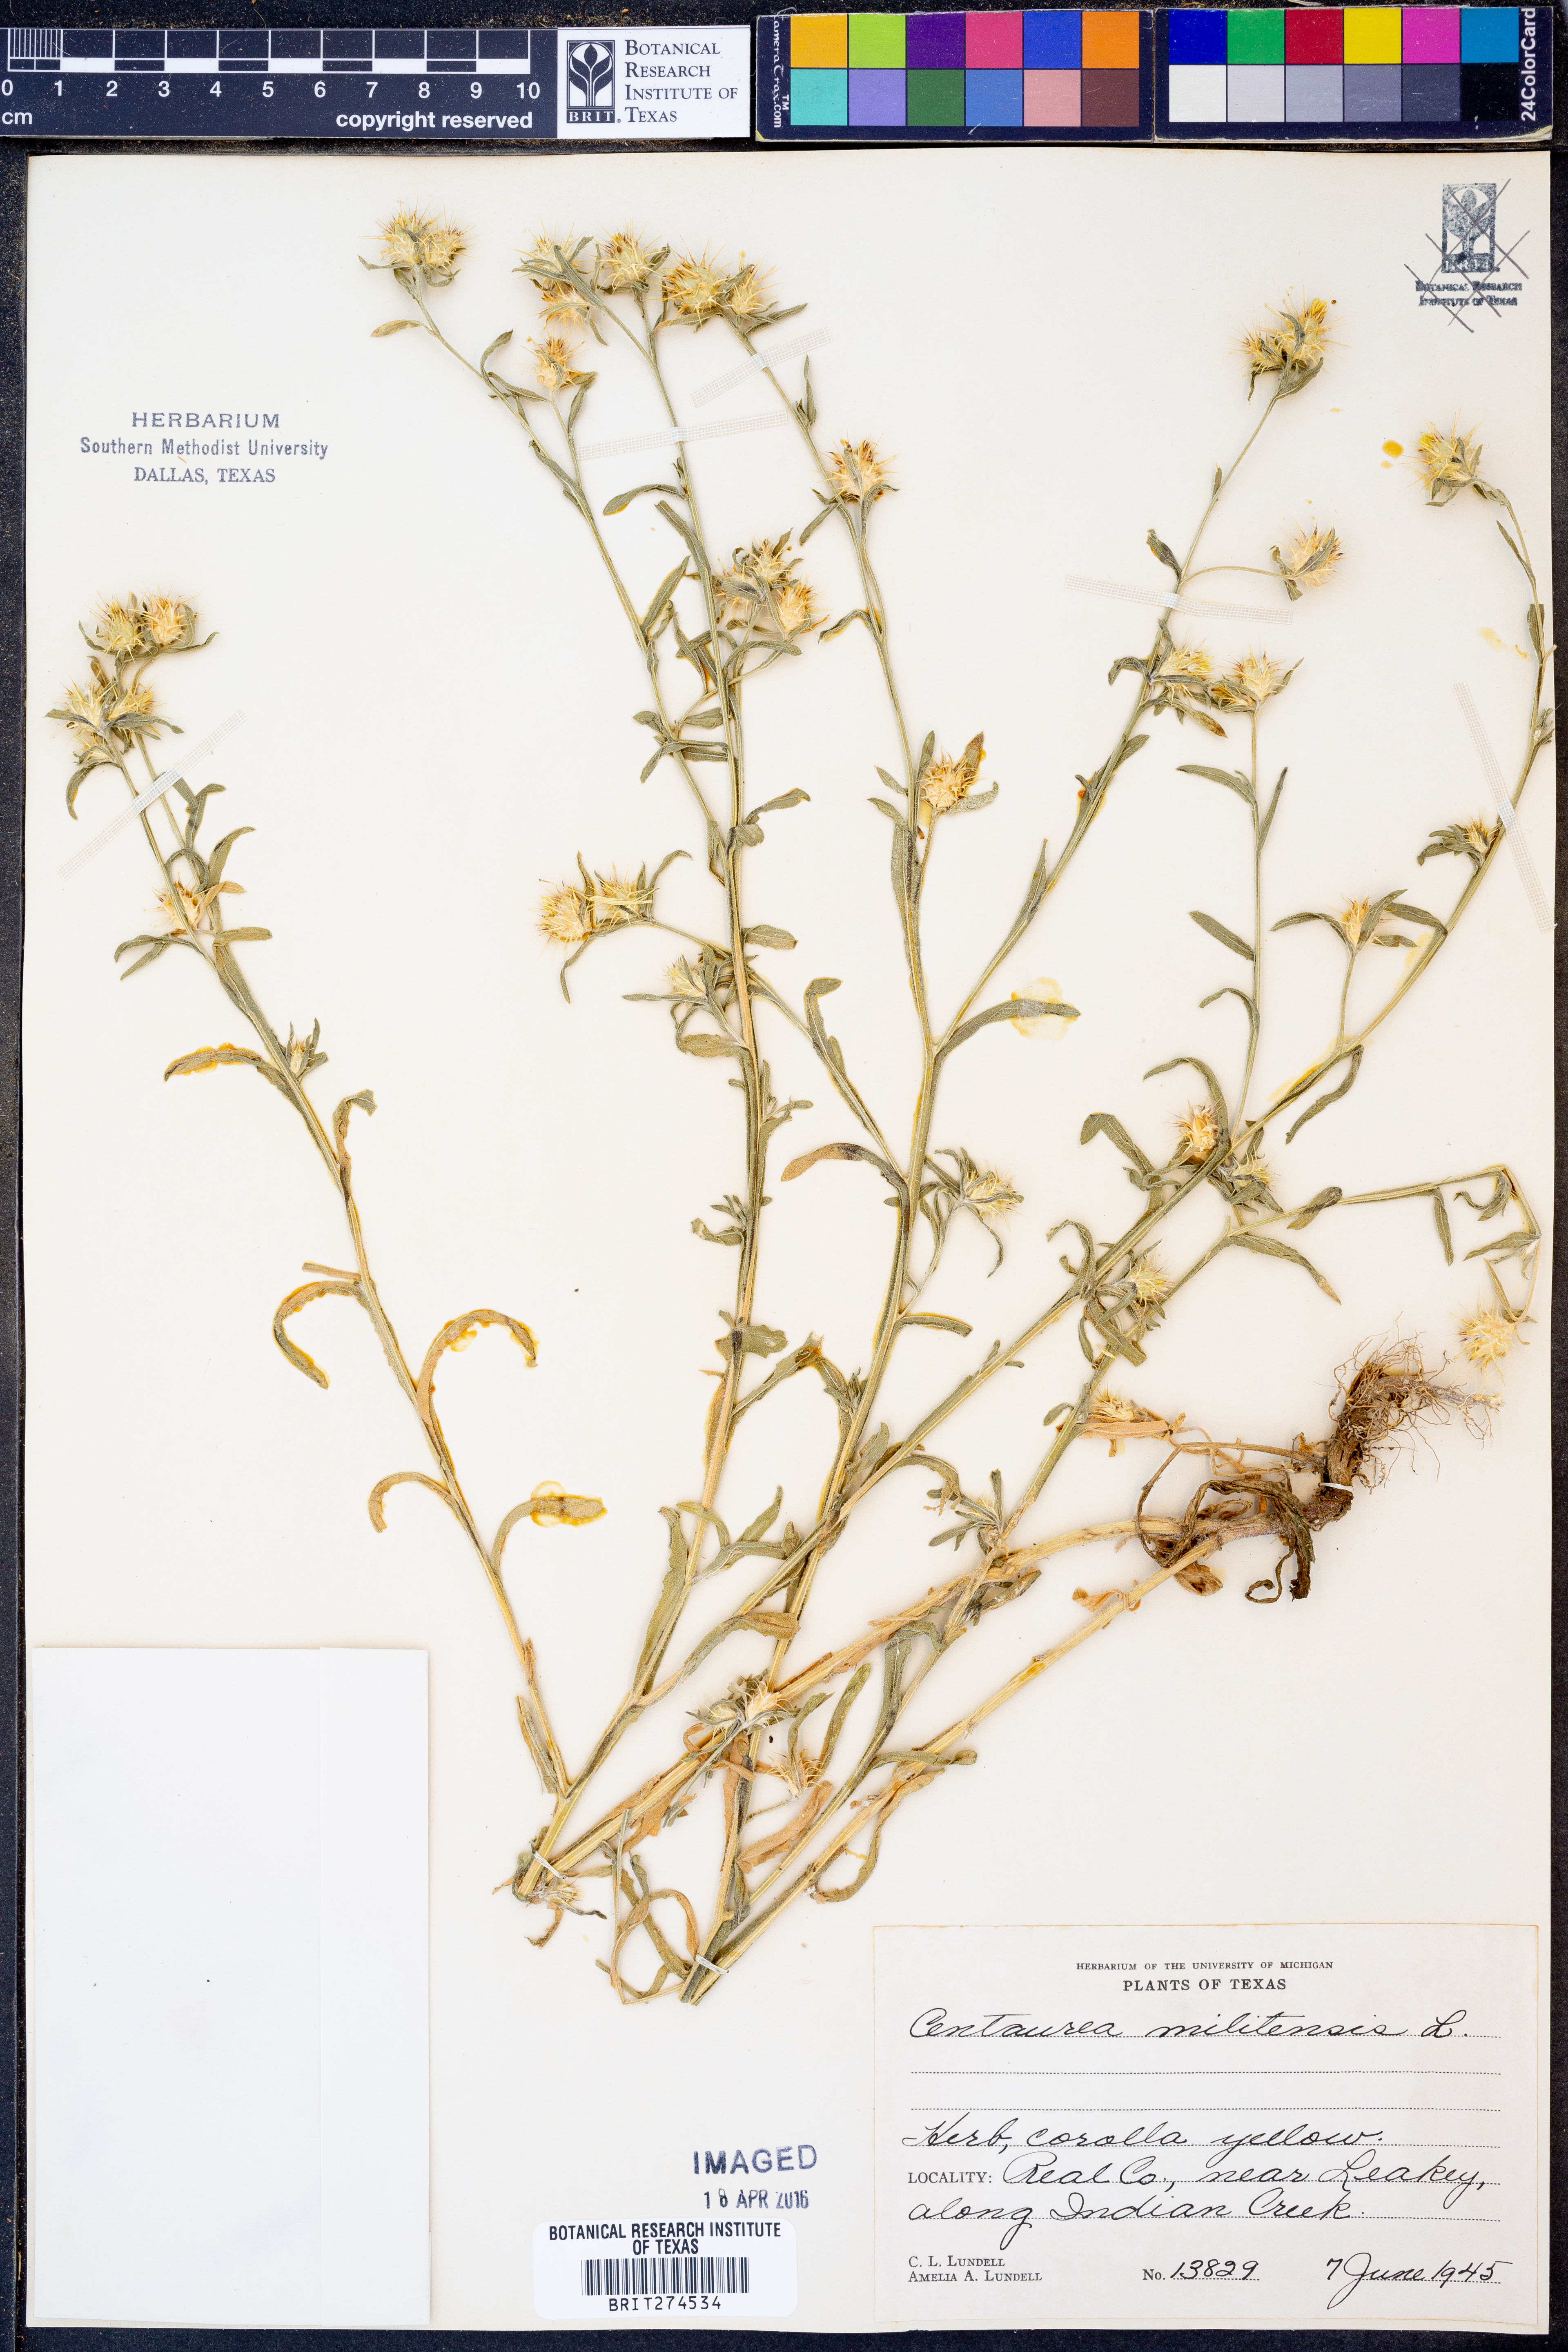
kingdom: Plantae
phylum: Tracheophyta
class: Magnoliopsida
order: Asterales
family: Asteraceae
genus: Centaurea
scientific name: Centaurea melitensis
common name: Maltese star-thistle
